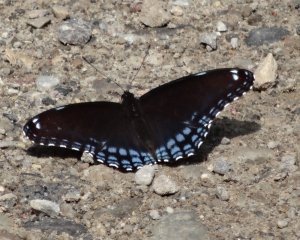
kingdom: Animalia
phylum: Arthropoda
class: Insecta
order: Lepidoptera
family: Nymphalidae
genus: Limenitis
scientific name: Limenitis astyanax
